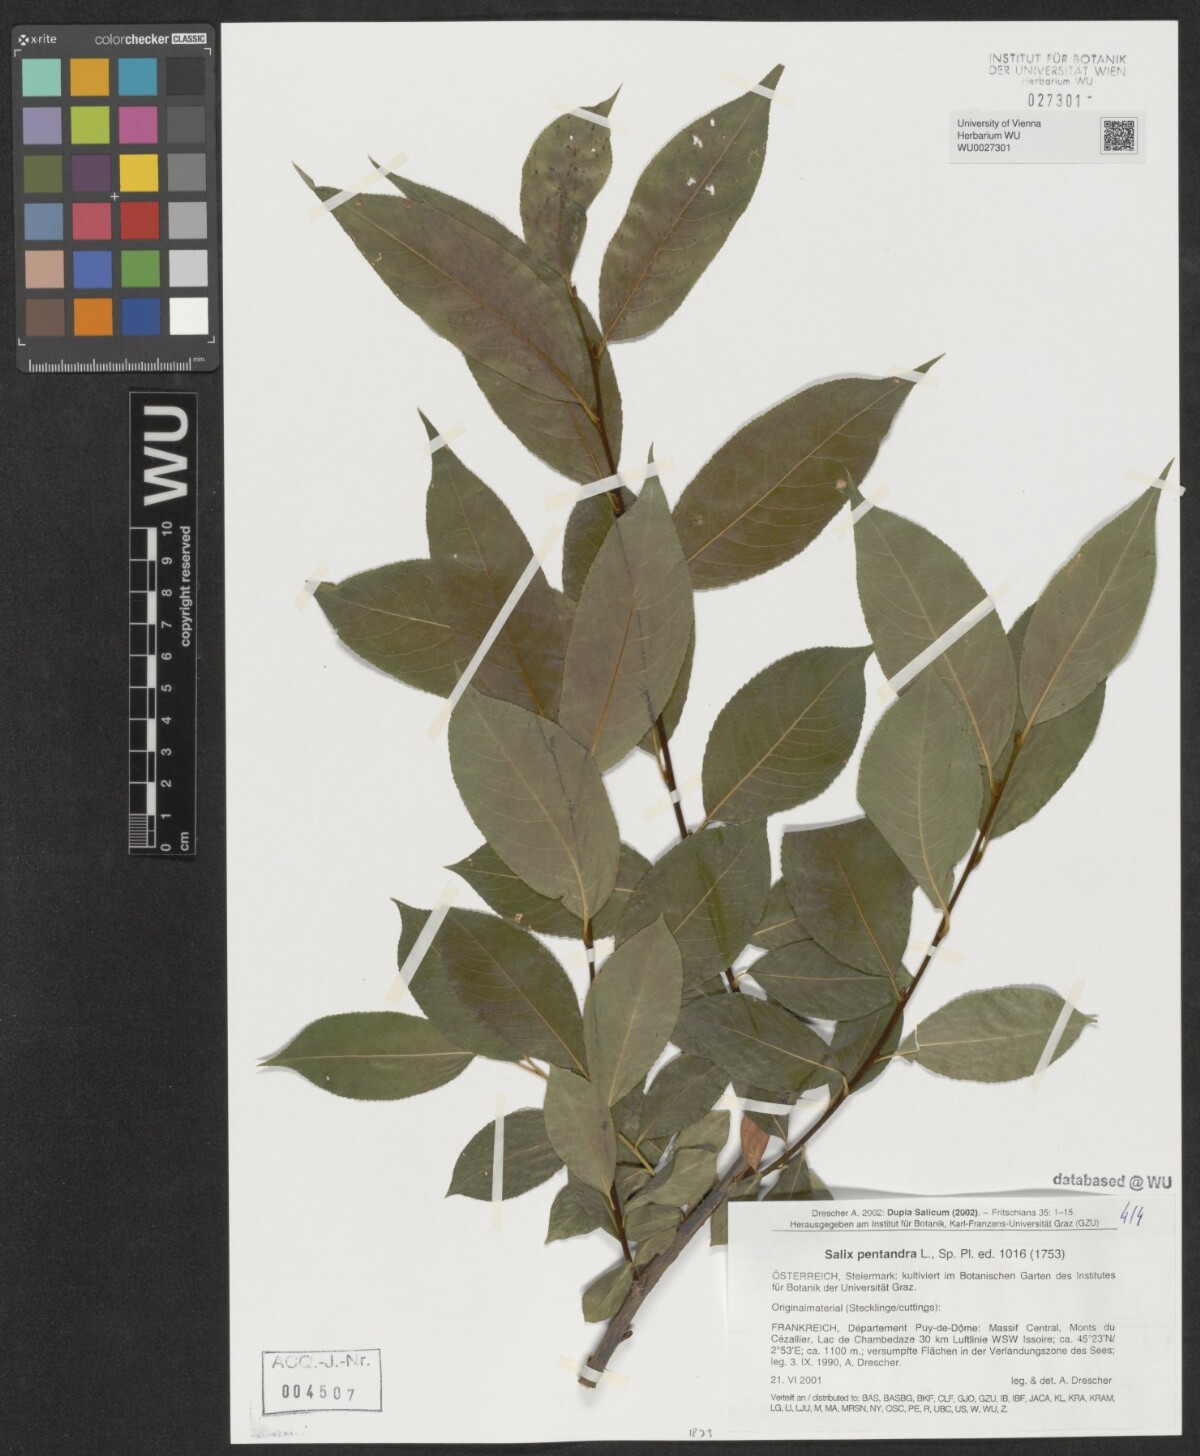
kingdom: Plantae
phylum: Tracheophyta
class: Magnoliopsida
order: Malpighiales
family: Salicaceae
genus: Salix
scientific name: Salix pentandra
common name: Bay willow
